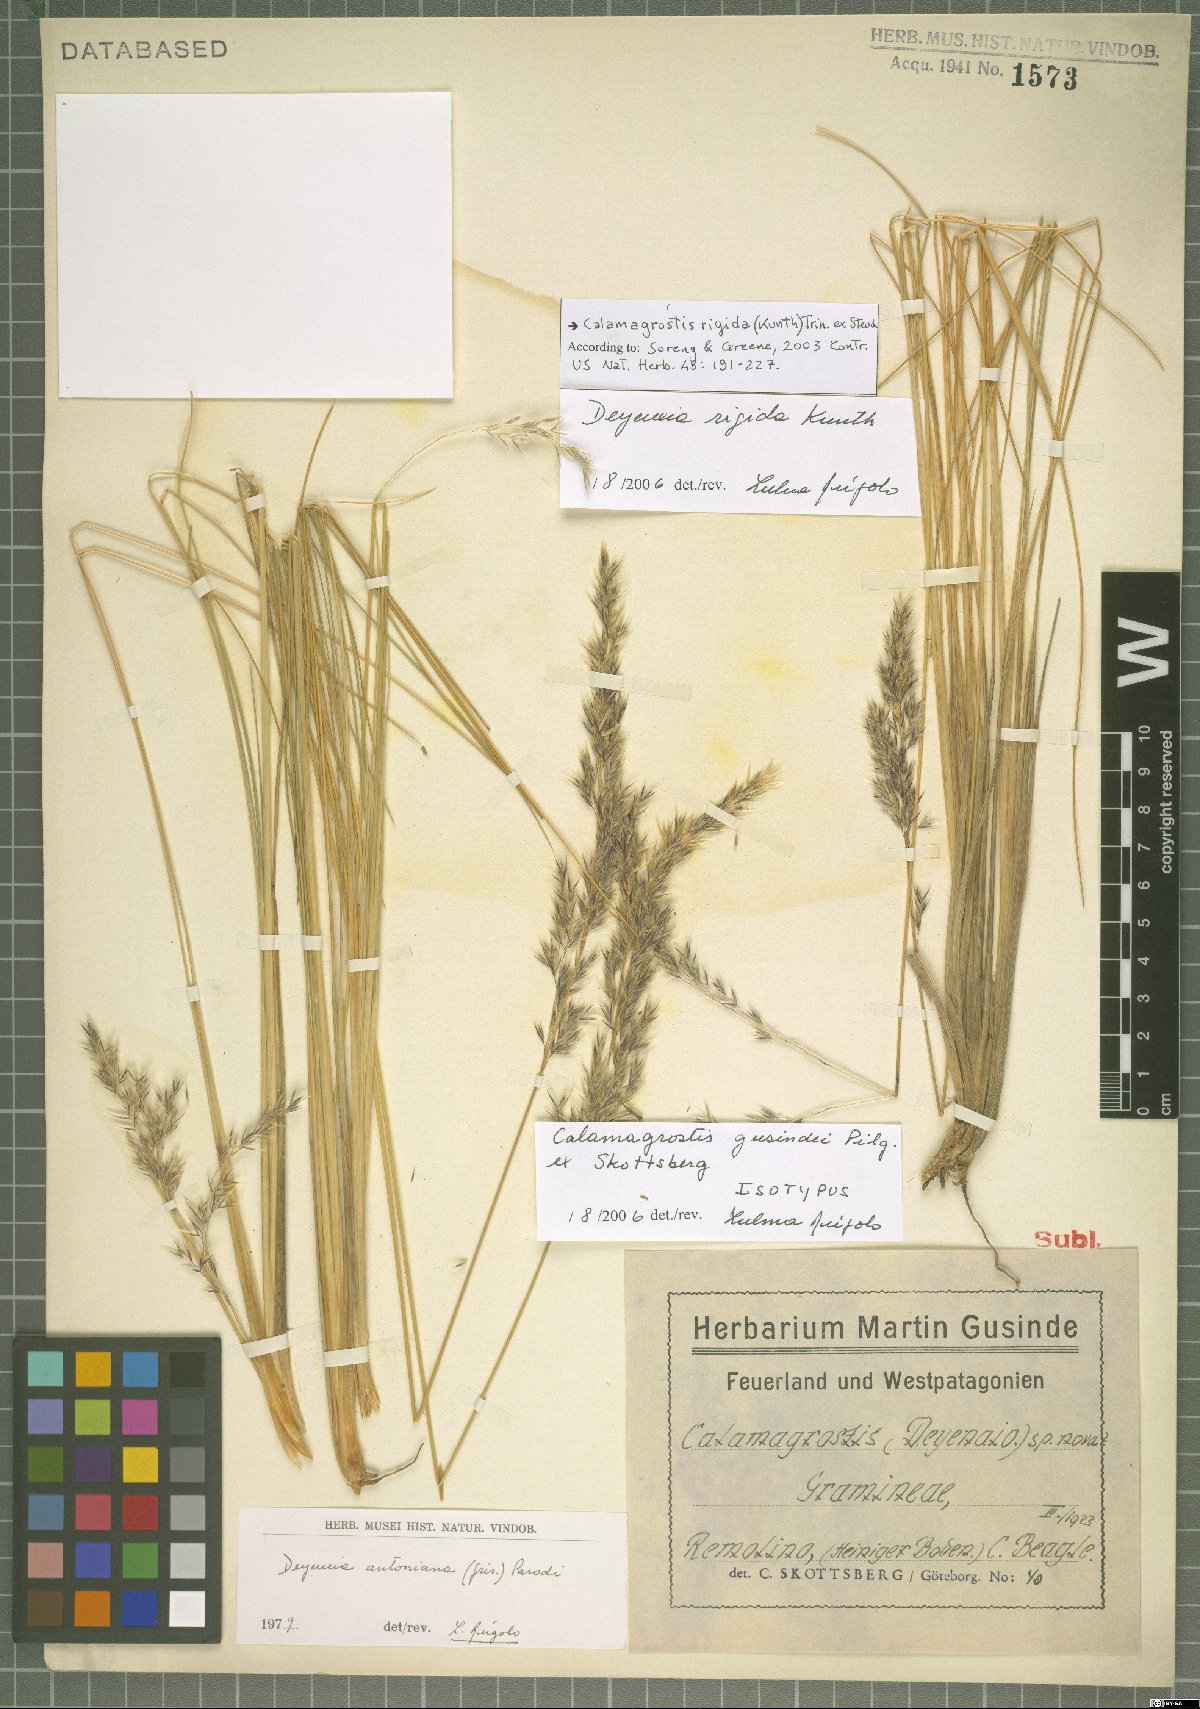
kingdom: Plantae
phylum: Tracheophyta
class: Liliopsida
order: Poales
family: Poaceae
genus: Cinnagrostis
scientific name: Cinnagrostis rigida
